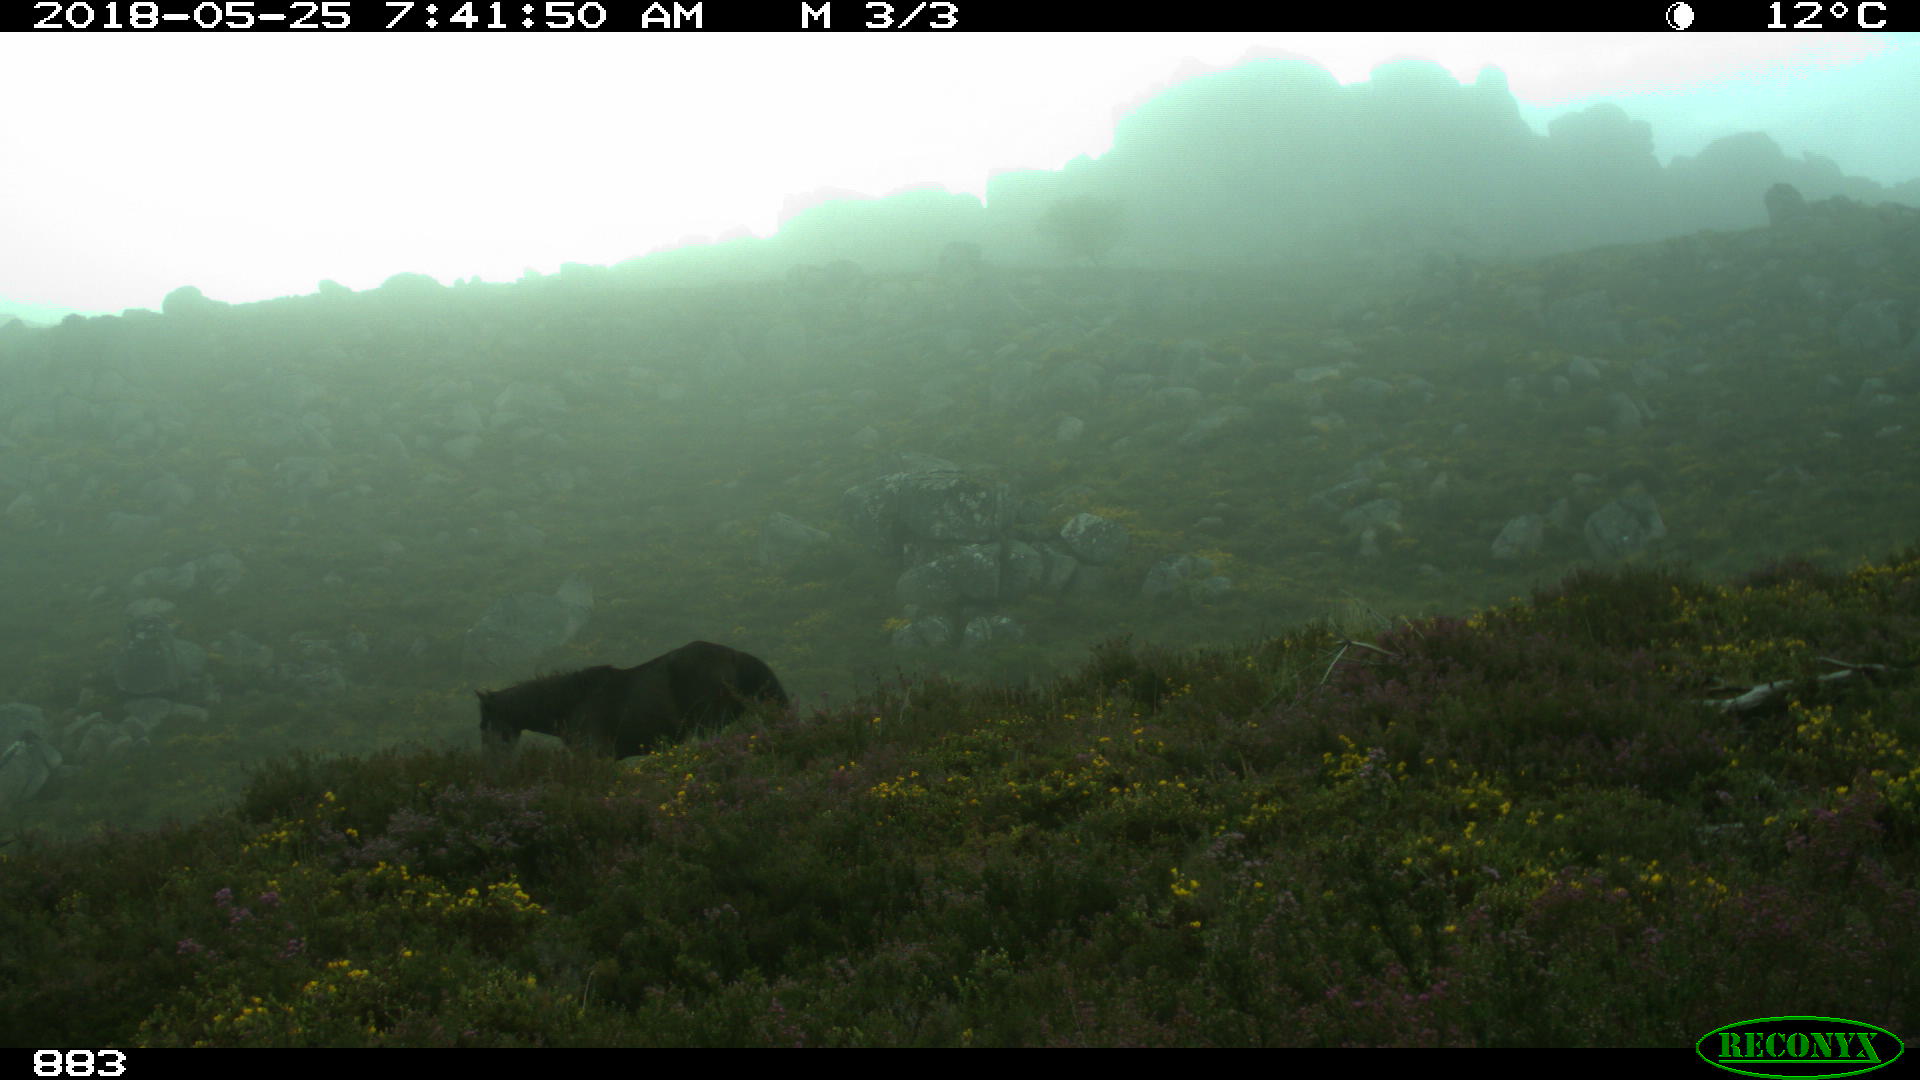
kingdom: Animalia
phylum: Chordata
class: Mammalia
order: Perissodactyla
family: Equidae
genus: Equus
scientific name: Equus caballus
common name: Horse
